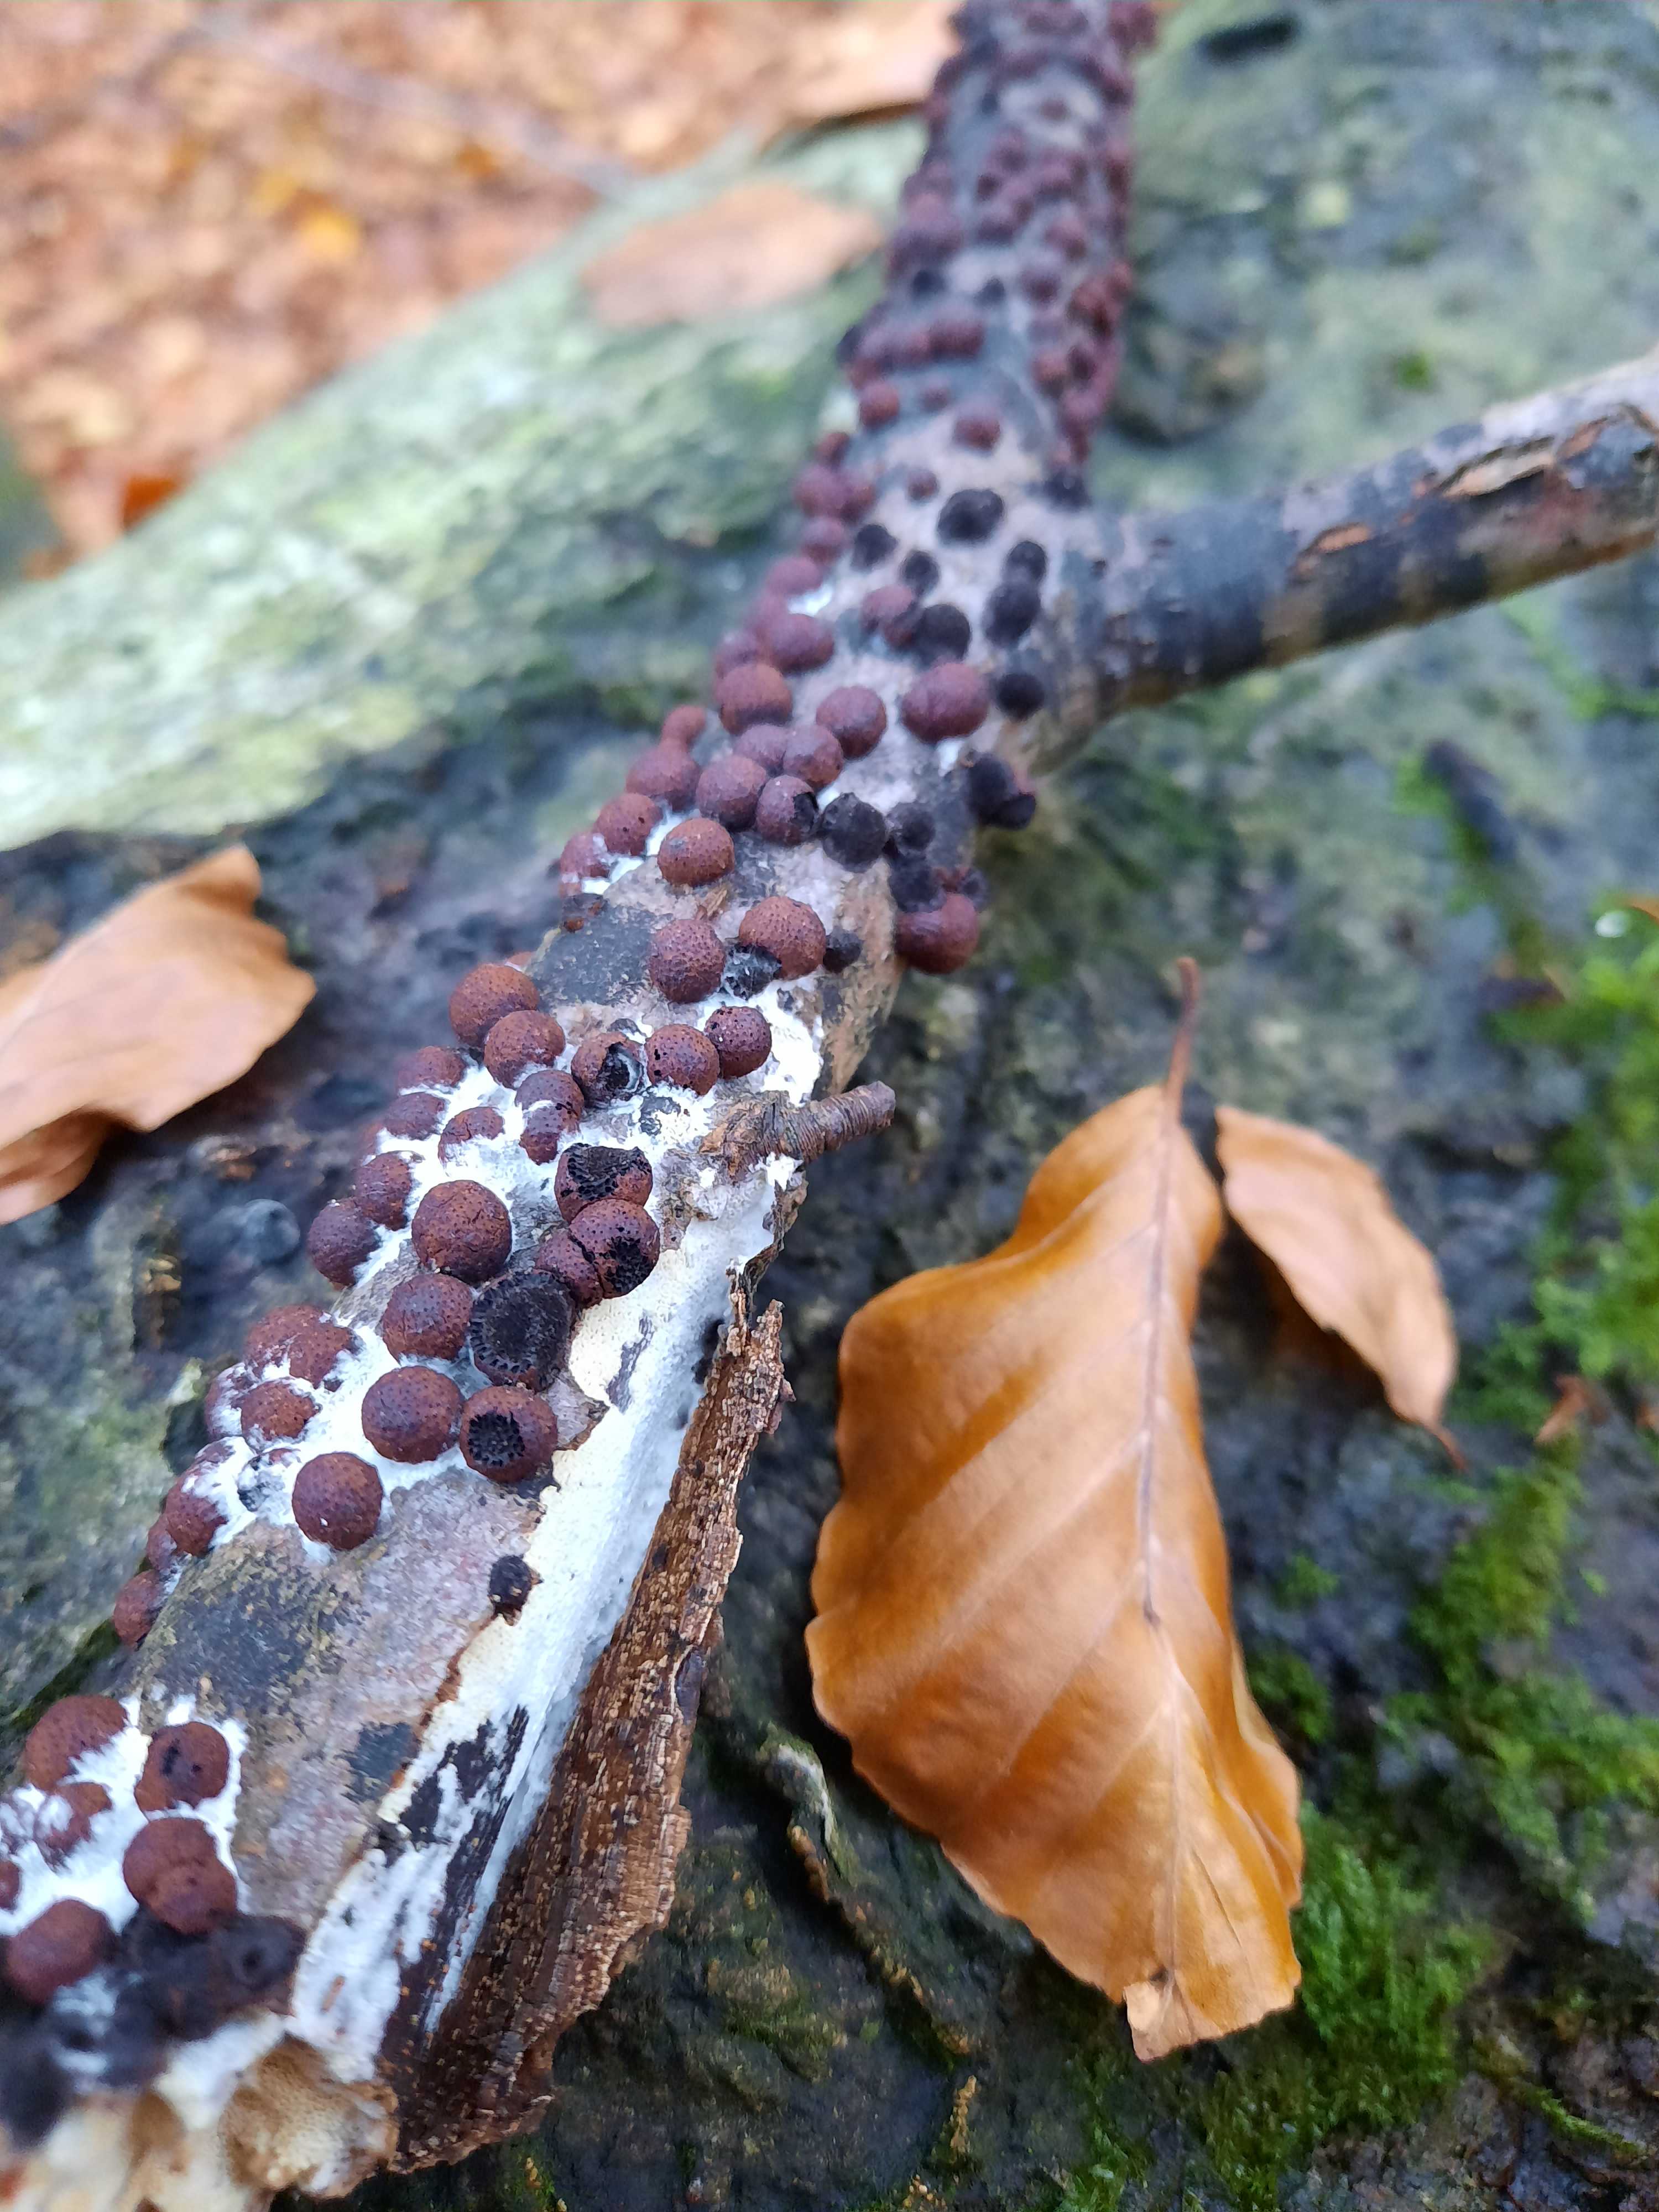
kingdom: Fungi
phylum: Ascomycota
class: Sordariomycetes
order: Xylariales
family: Hypoxylaceae
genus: Hypoxylon
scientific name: Hypoxylon fragiforme
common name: kuljordbær
